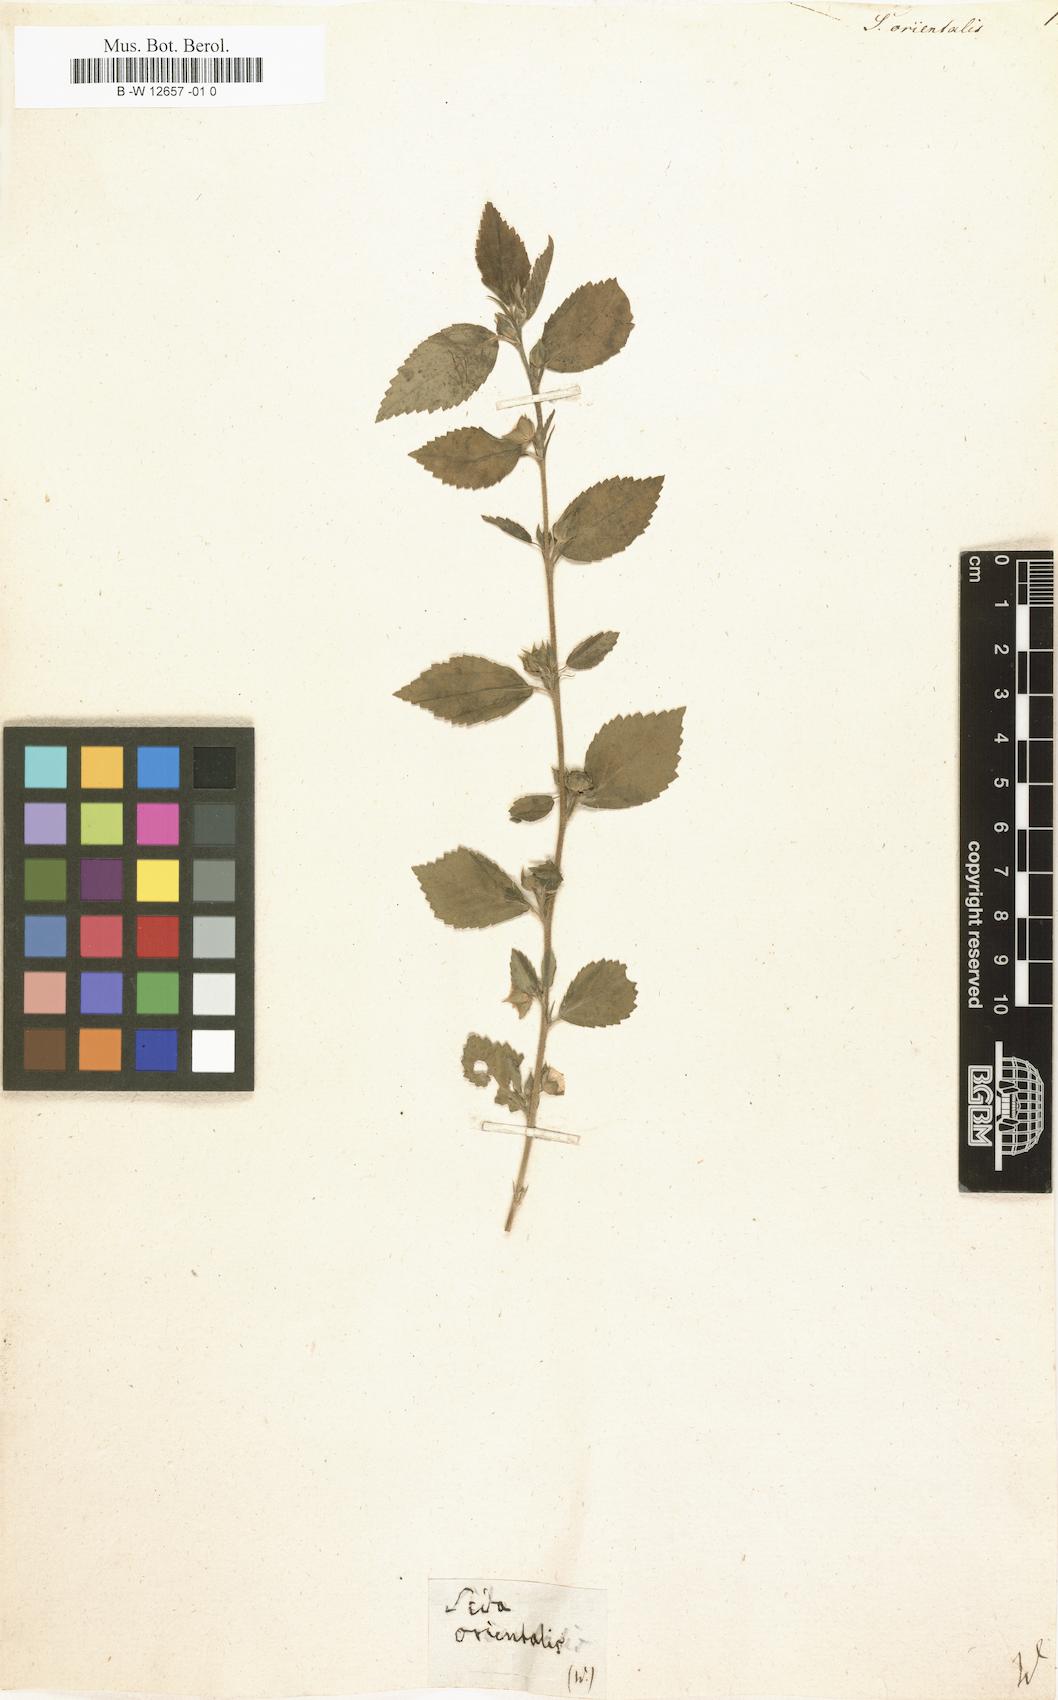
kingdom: Plantae
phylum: Tracheophyta
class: Magnoliopsida
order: Malvales
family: Malvaceae
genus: Sida
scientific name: Sida orientalis
